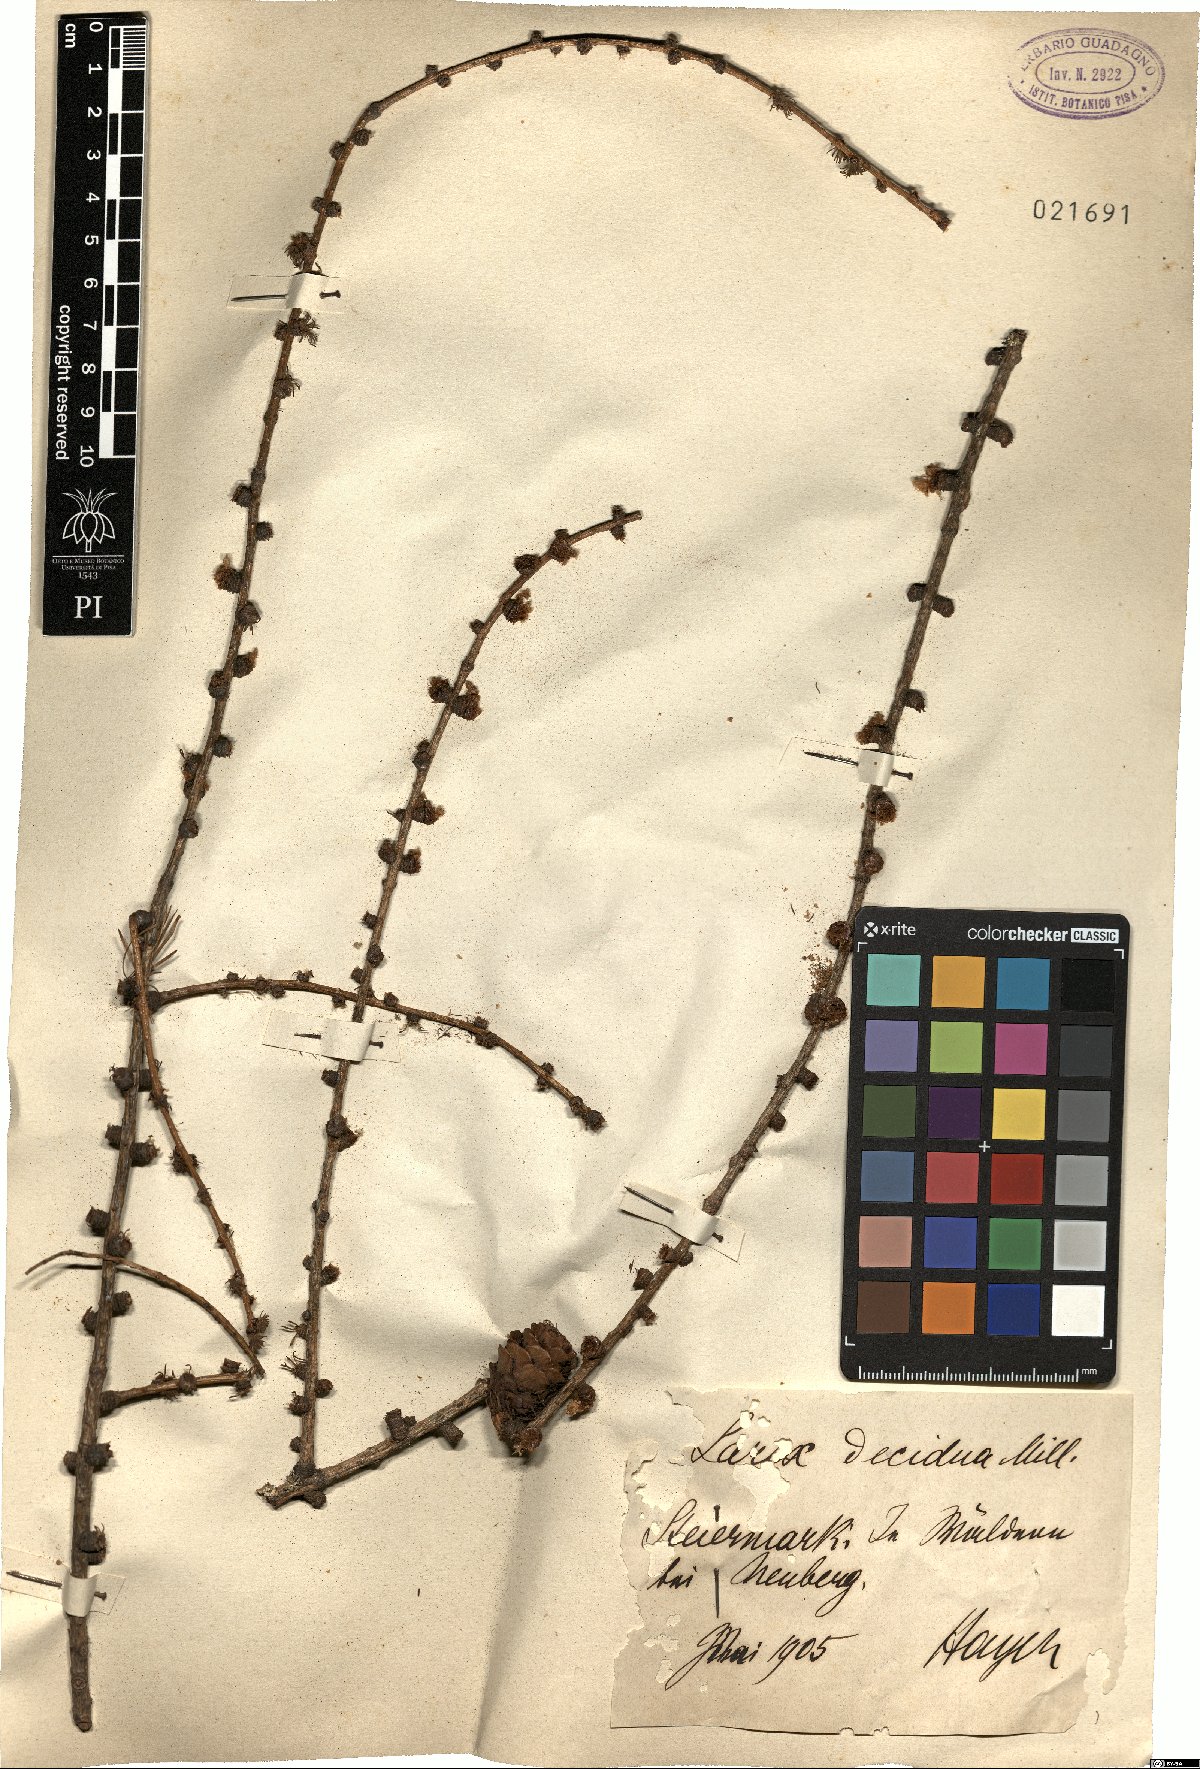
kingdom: Plantae
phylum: Tracheophyta
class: Pinopsida
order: Pinales
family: Pinaceae
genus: Larix
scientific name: Larix decidua
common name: European larch
